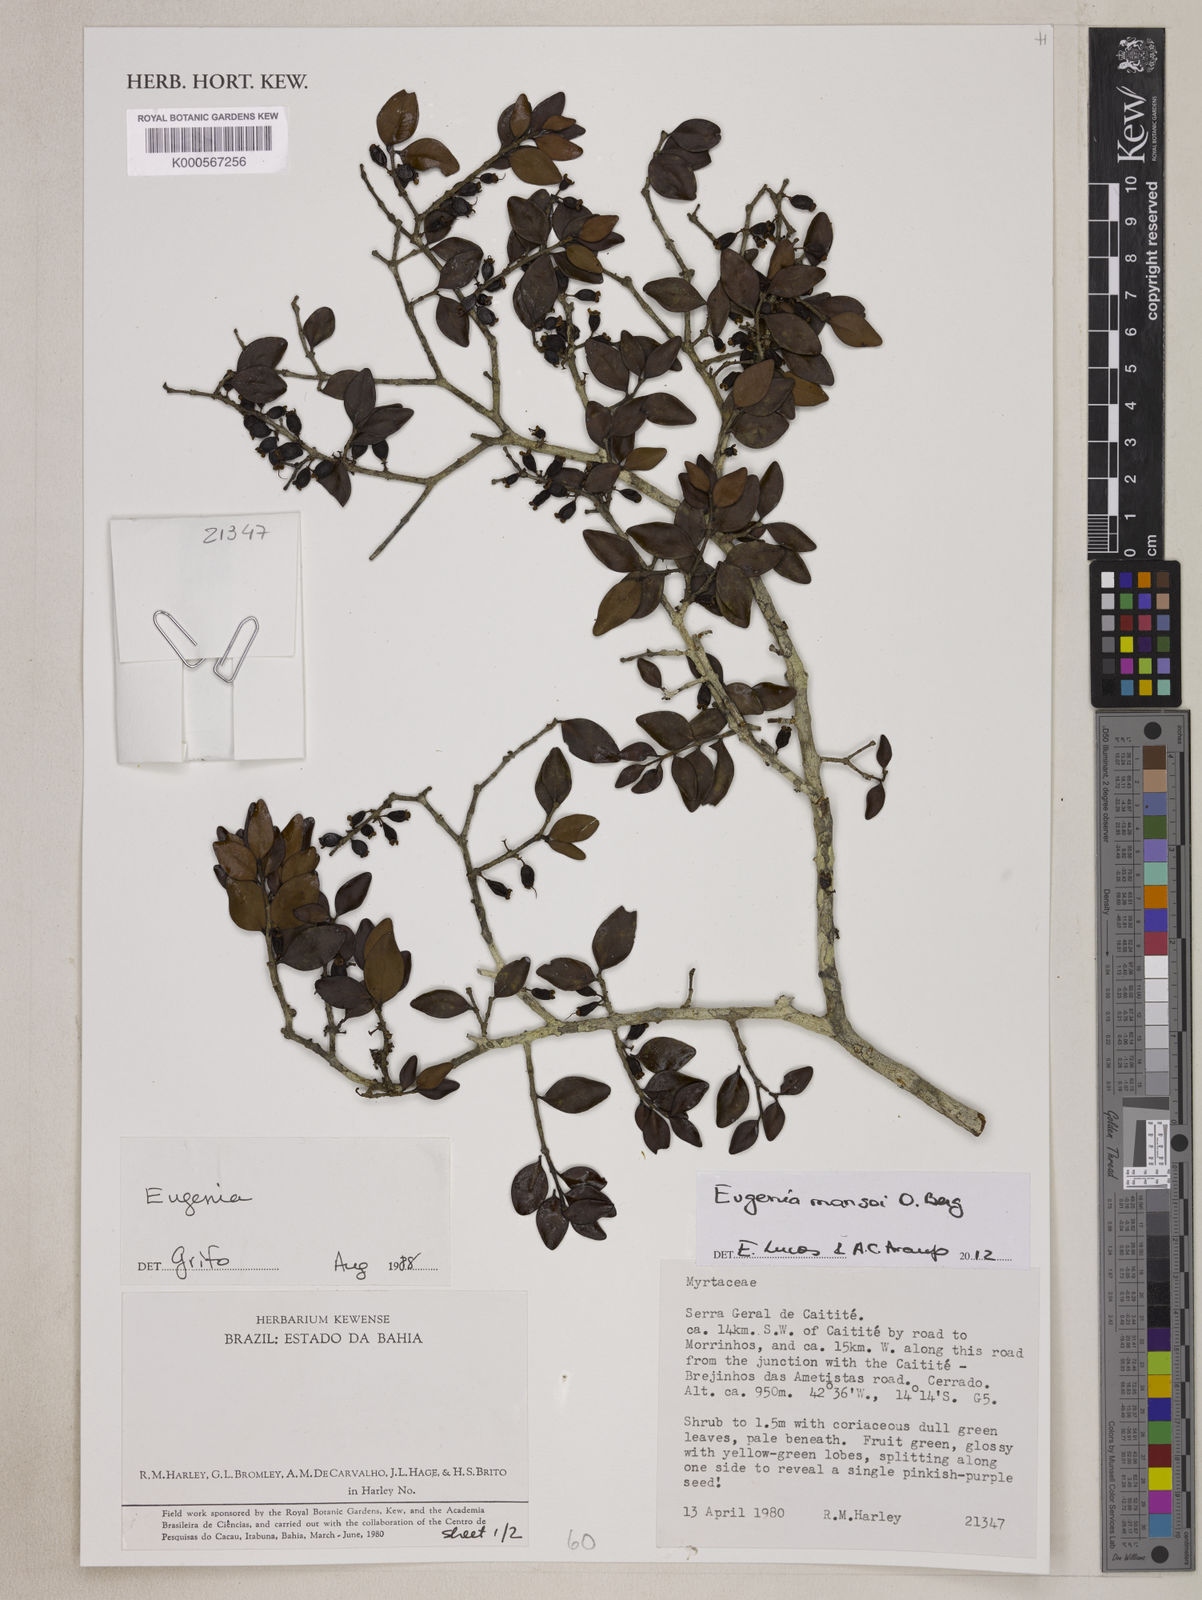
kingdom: Plantae
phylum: Tracheophyta
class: Magnoliopsida
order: Myrtales
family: Myrtaceae
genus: Eugenia
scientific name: Eugenia mansoi
